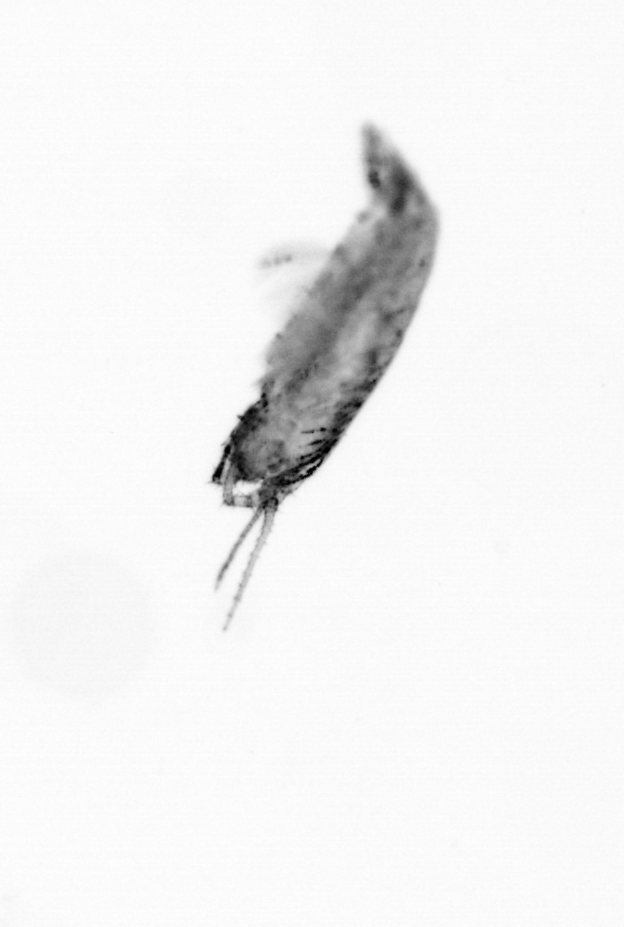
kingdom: Animalia
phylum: Arthropoda
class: Copepoda
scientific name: Copepoda
